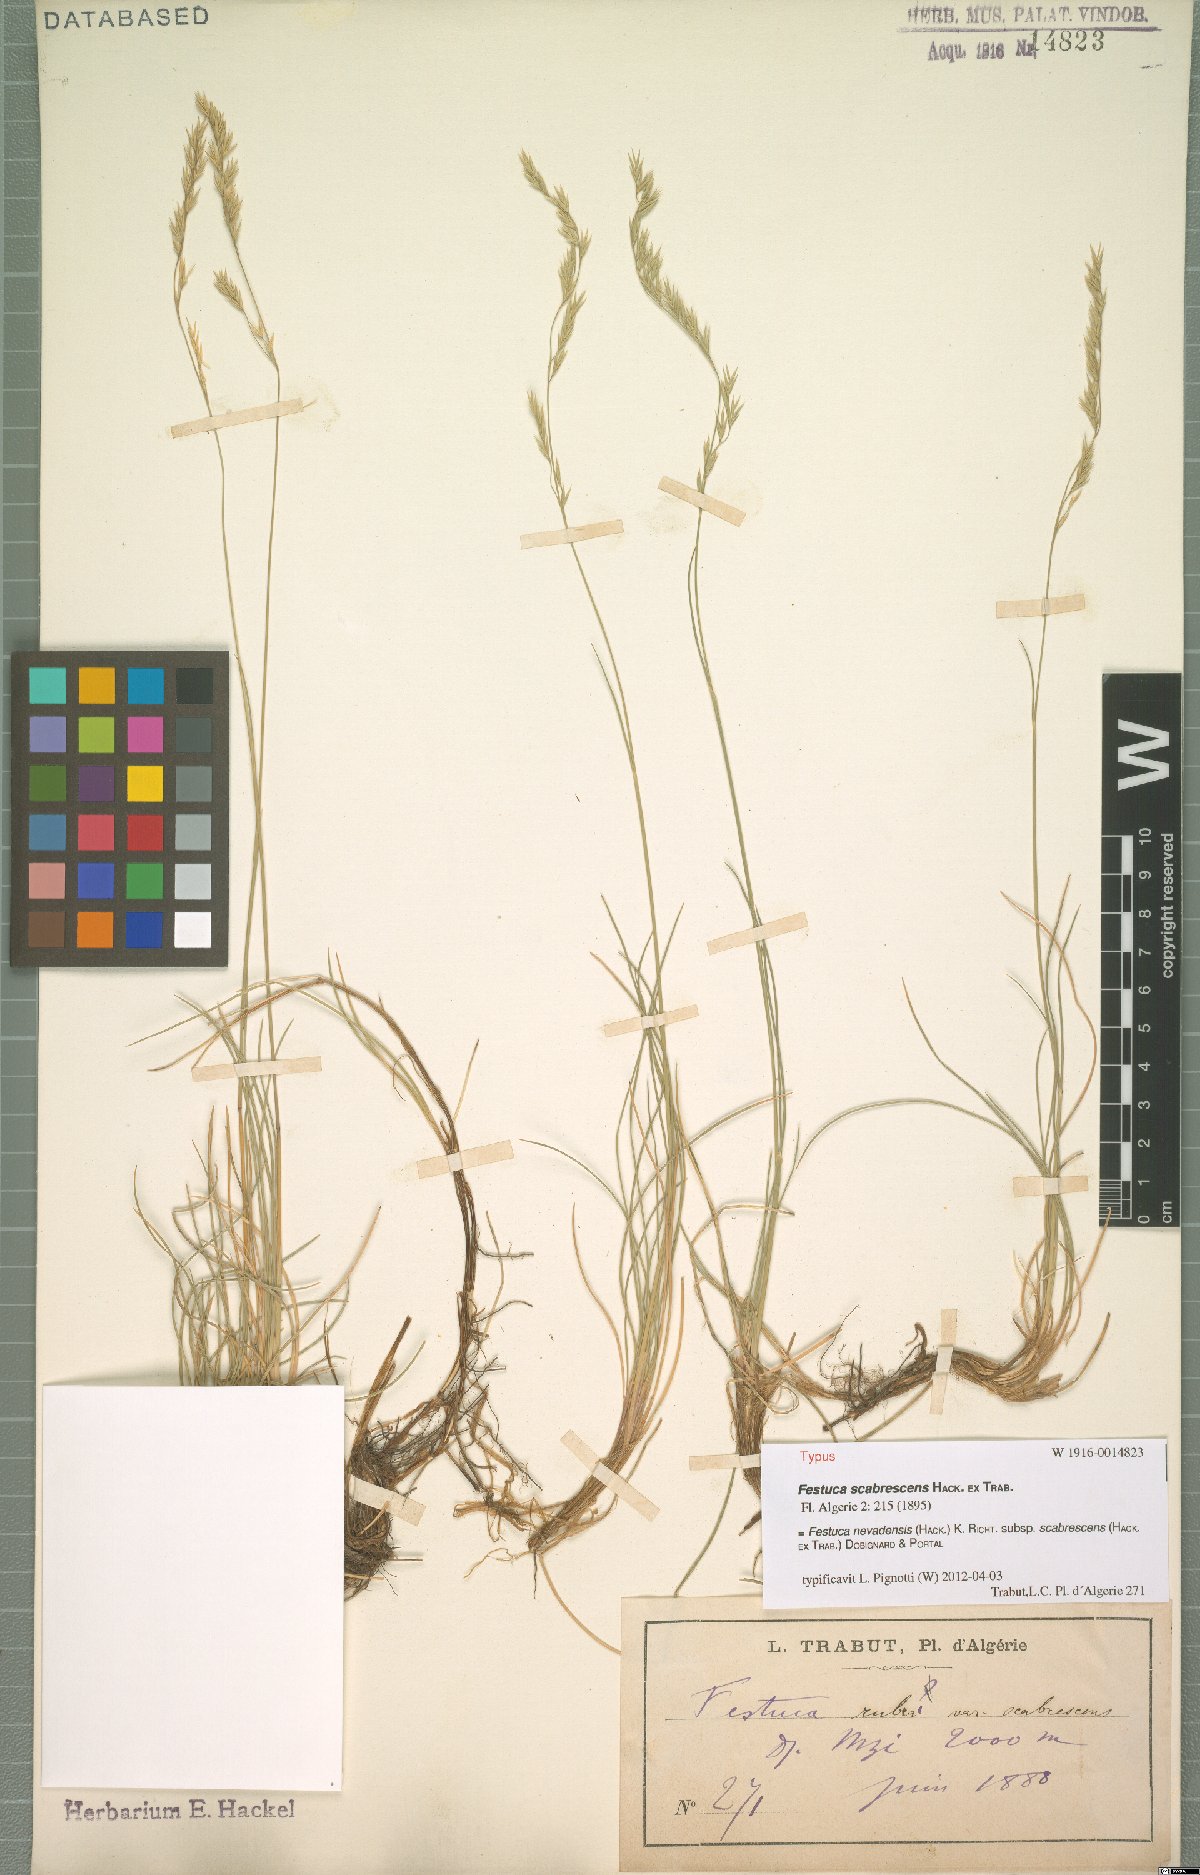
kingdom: Plantae
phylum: Tracheophyta
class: Liliopsida
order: Poales
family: Poaceae
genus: Festuca
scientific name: Festuca nevadensis
